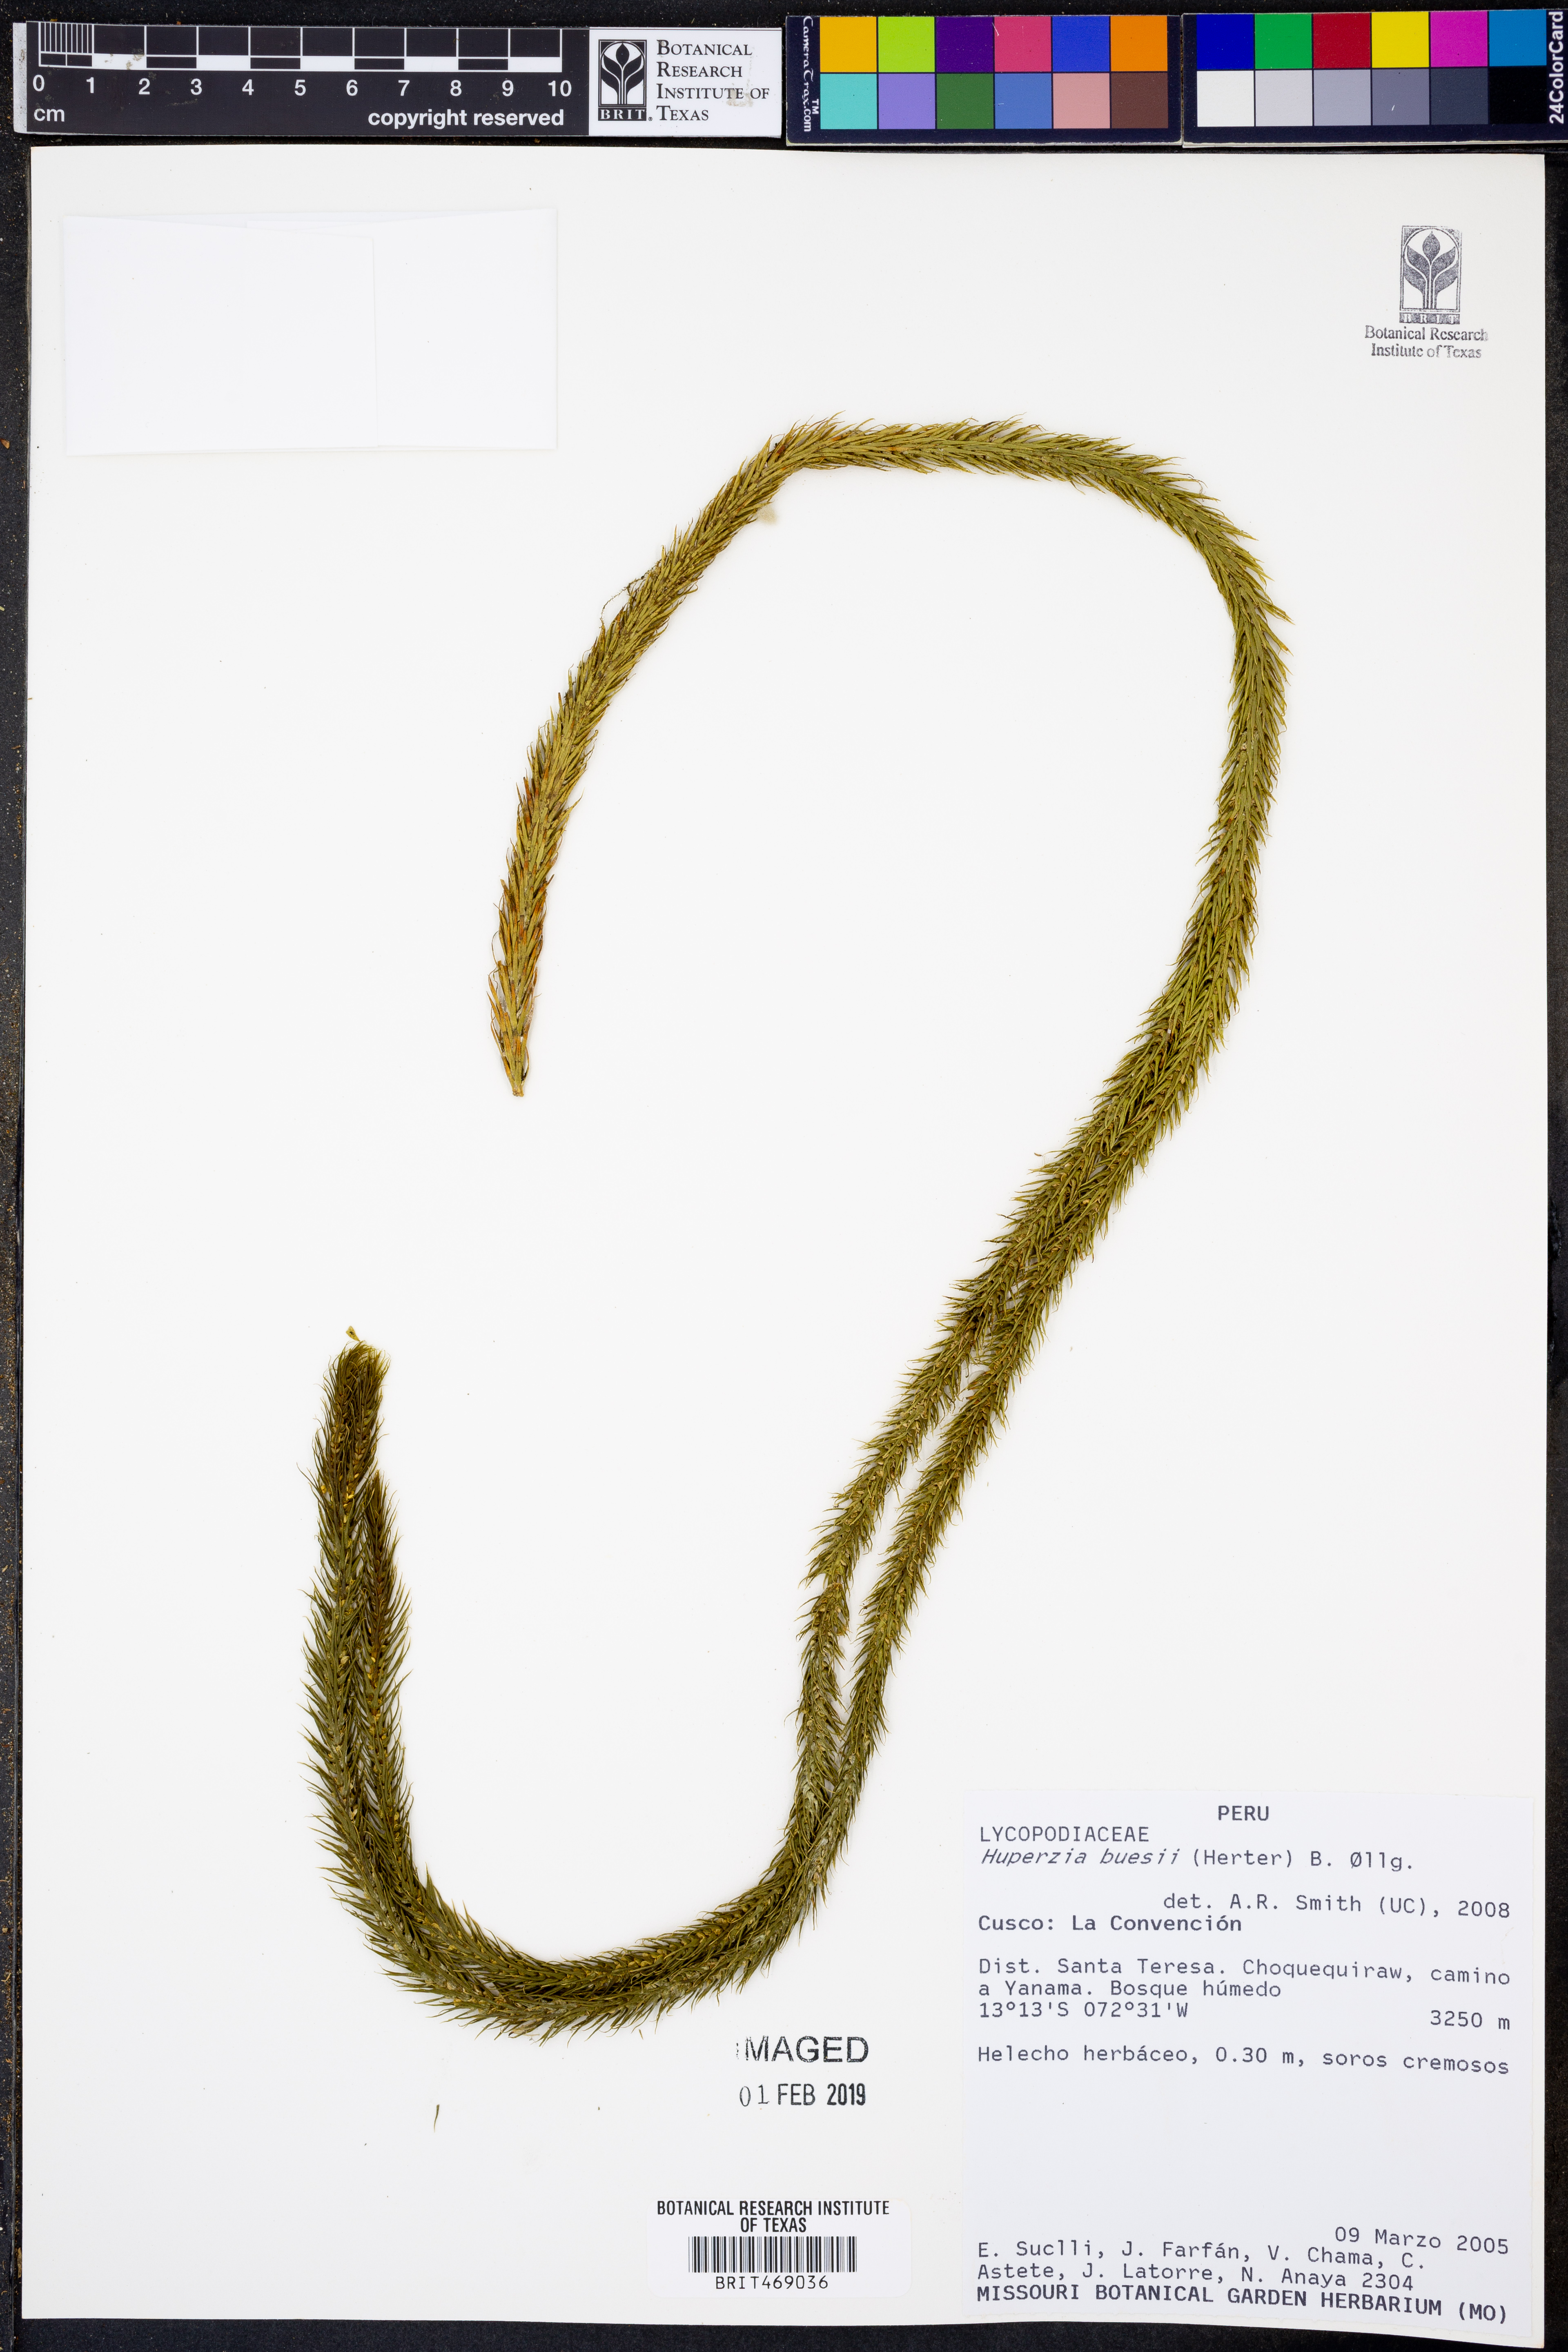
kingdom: Plantae
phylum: Tracheophyta
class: Lycopodiopsida
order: Lycopodiales
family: Lycopodiaceae
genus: Phlegmariurus
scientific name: Phlegmariurus buesii
